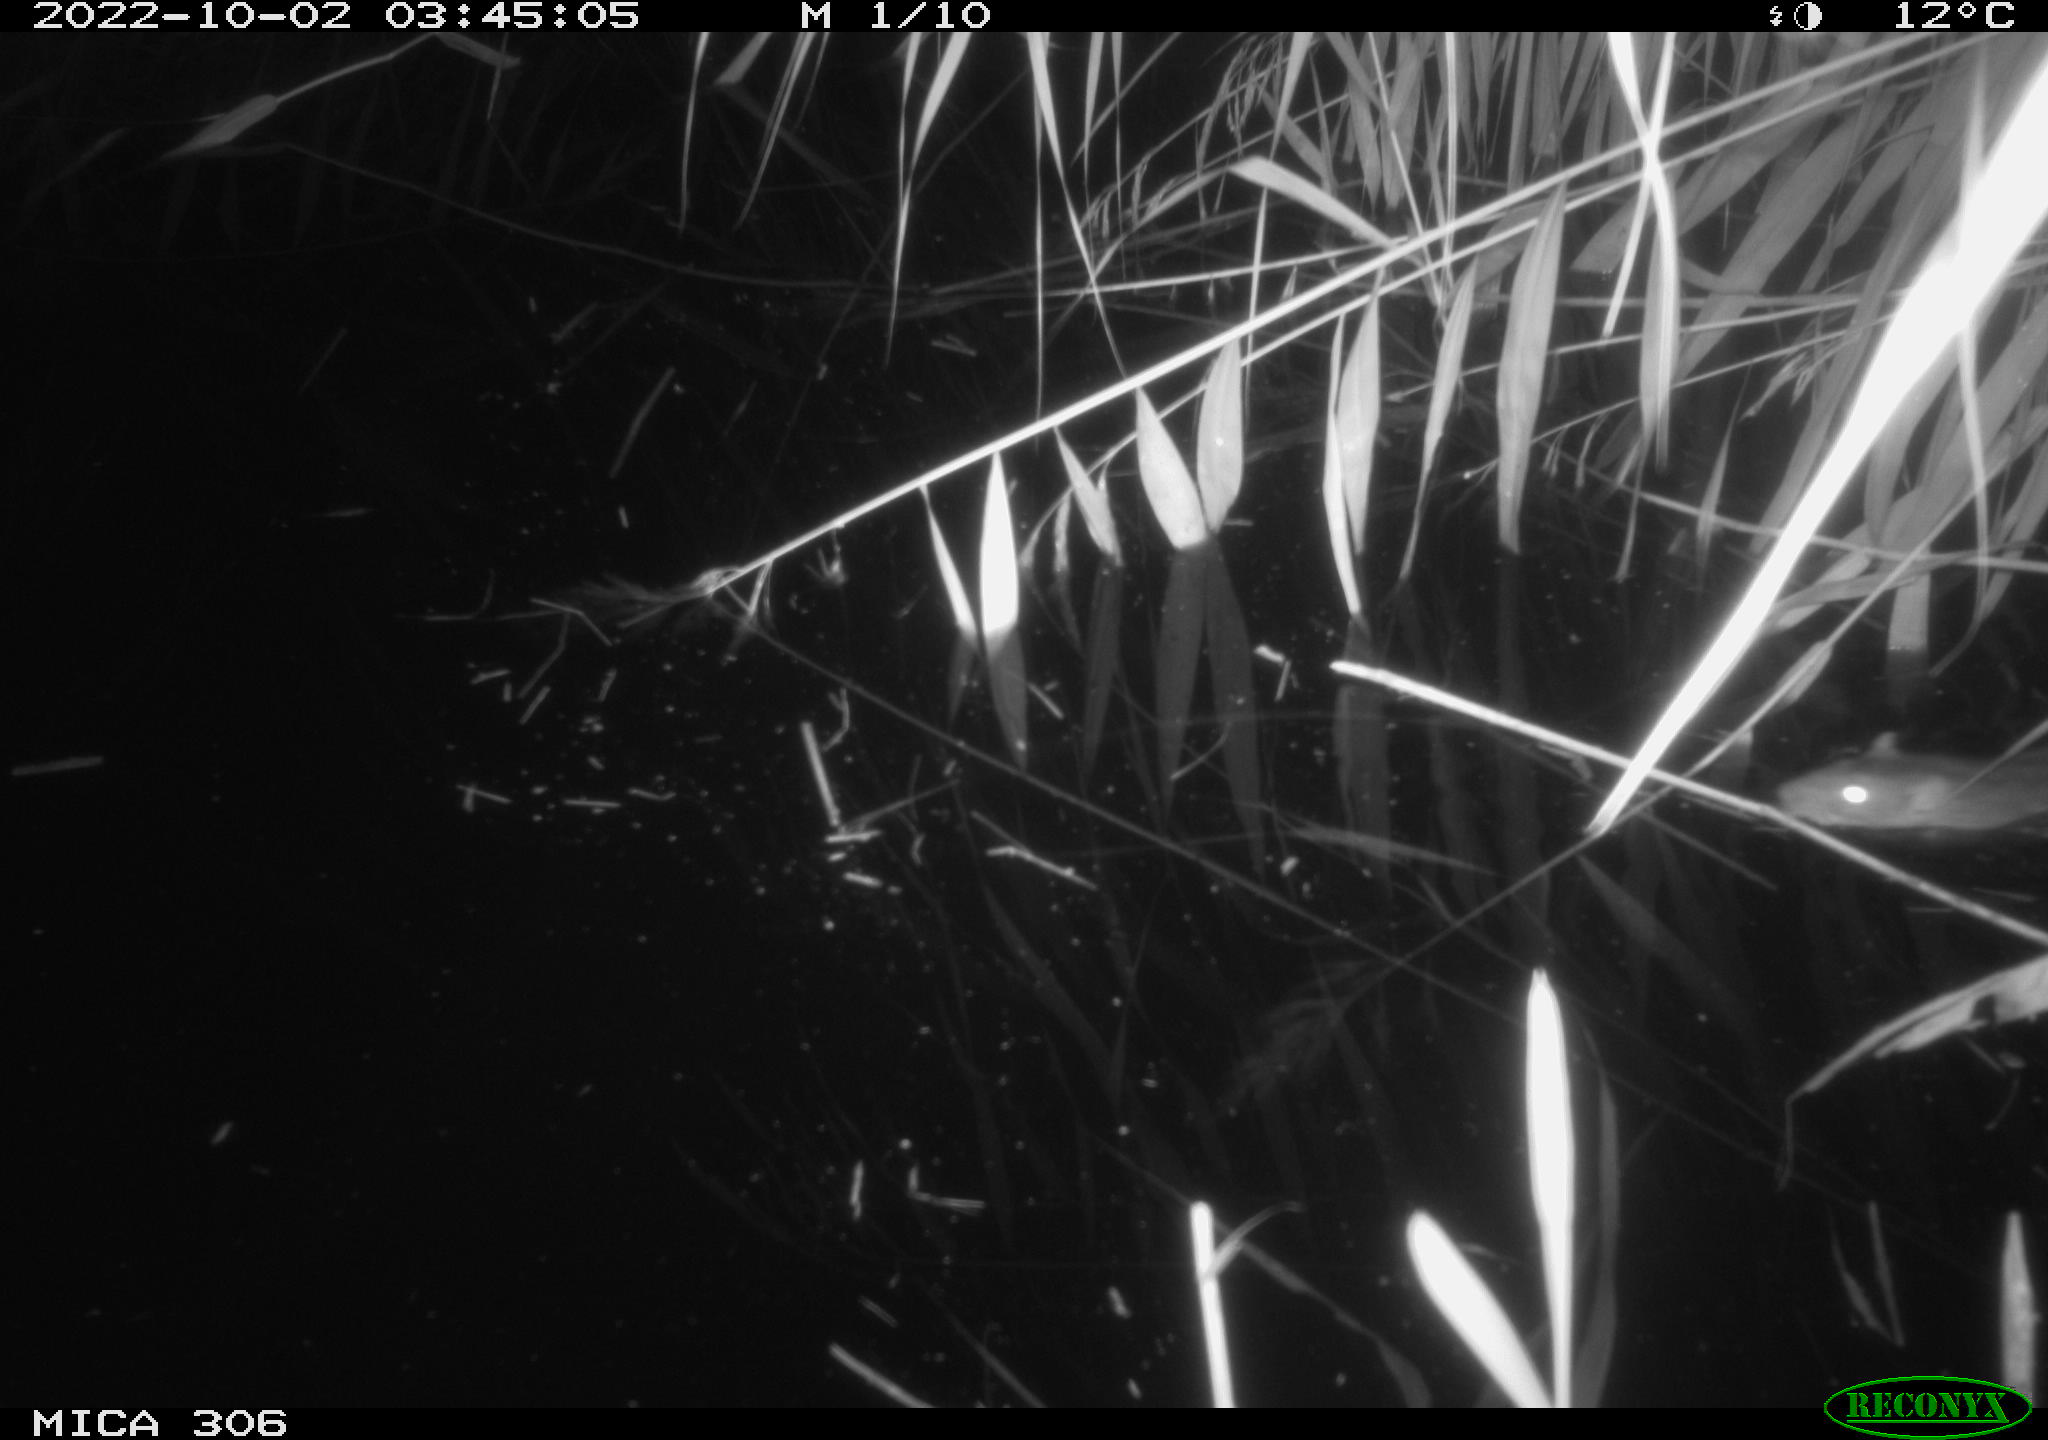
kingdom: Animalia
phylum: Chordata
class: Mammalia
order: Rodentia
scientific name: Rodentia
